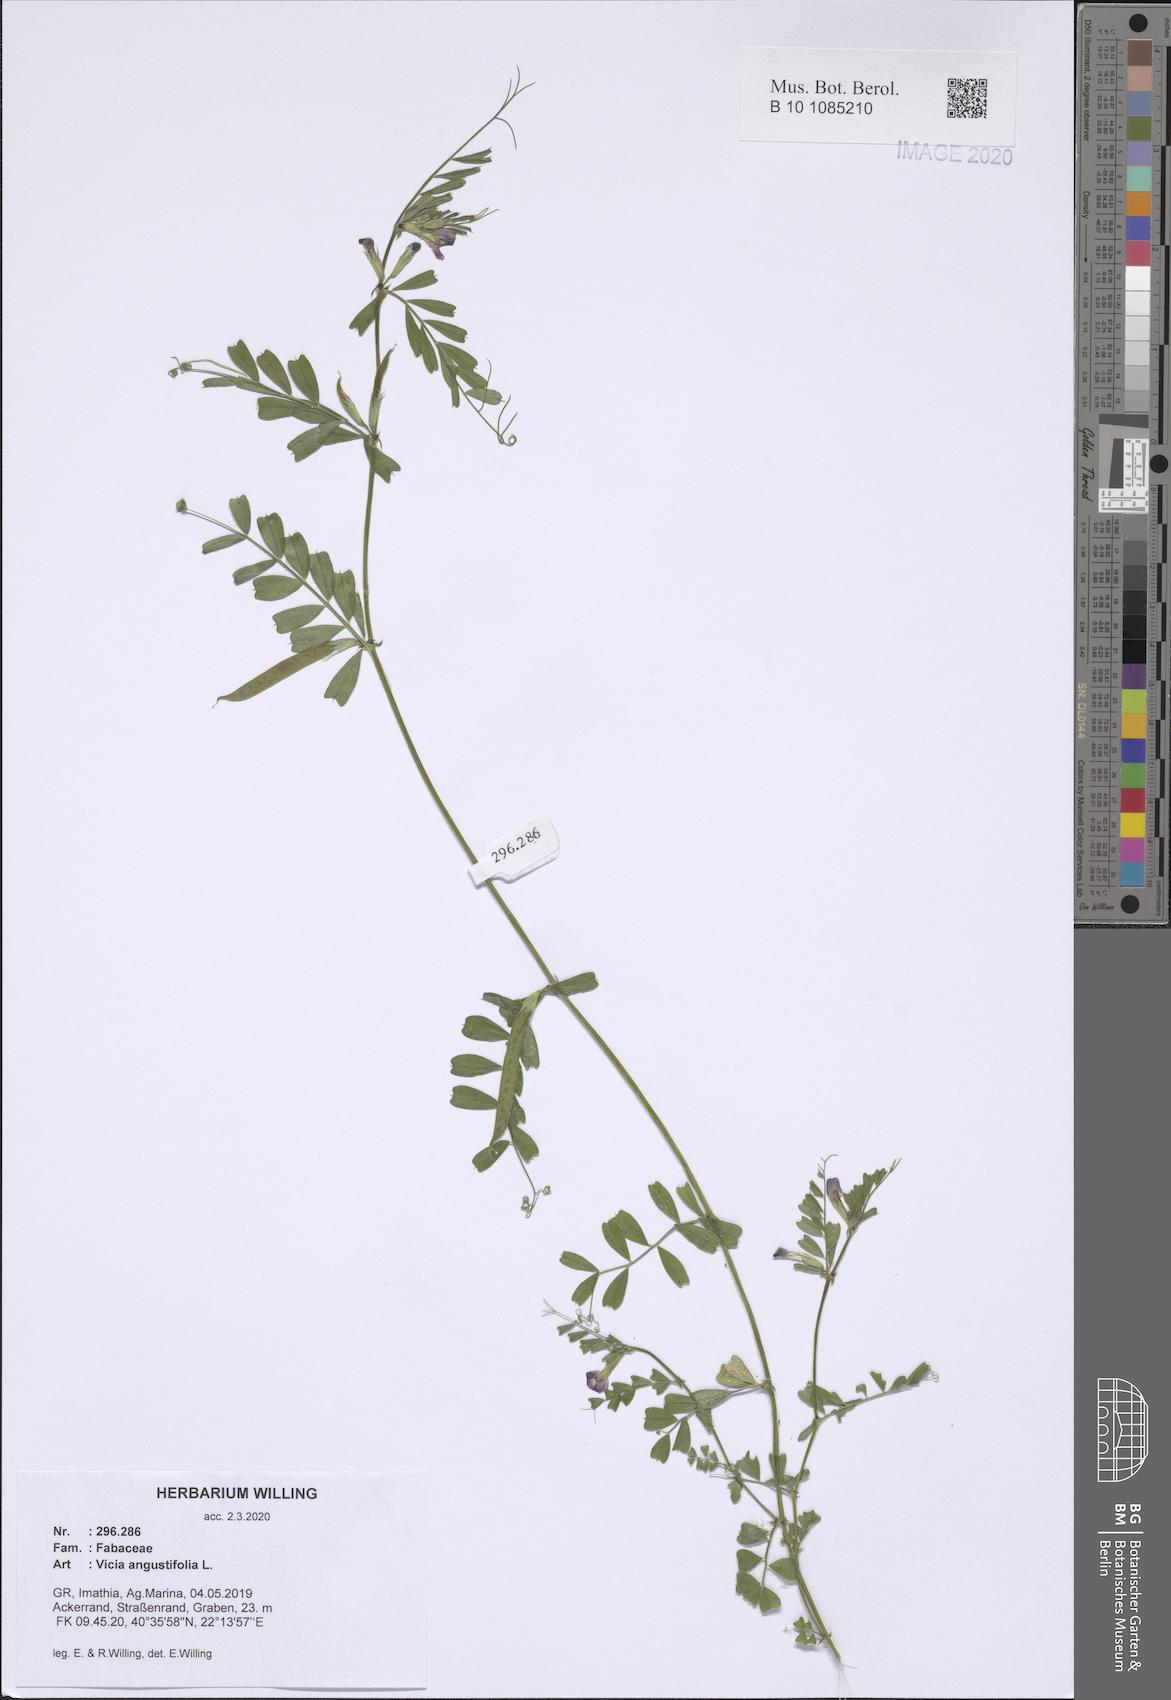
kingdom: Plantae
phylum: Tracheophyta
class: Magnoliopsida
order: Fabales
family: Fabaceae
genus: Vicia
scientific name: Vicia sativa
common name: Garden vetch
